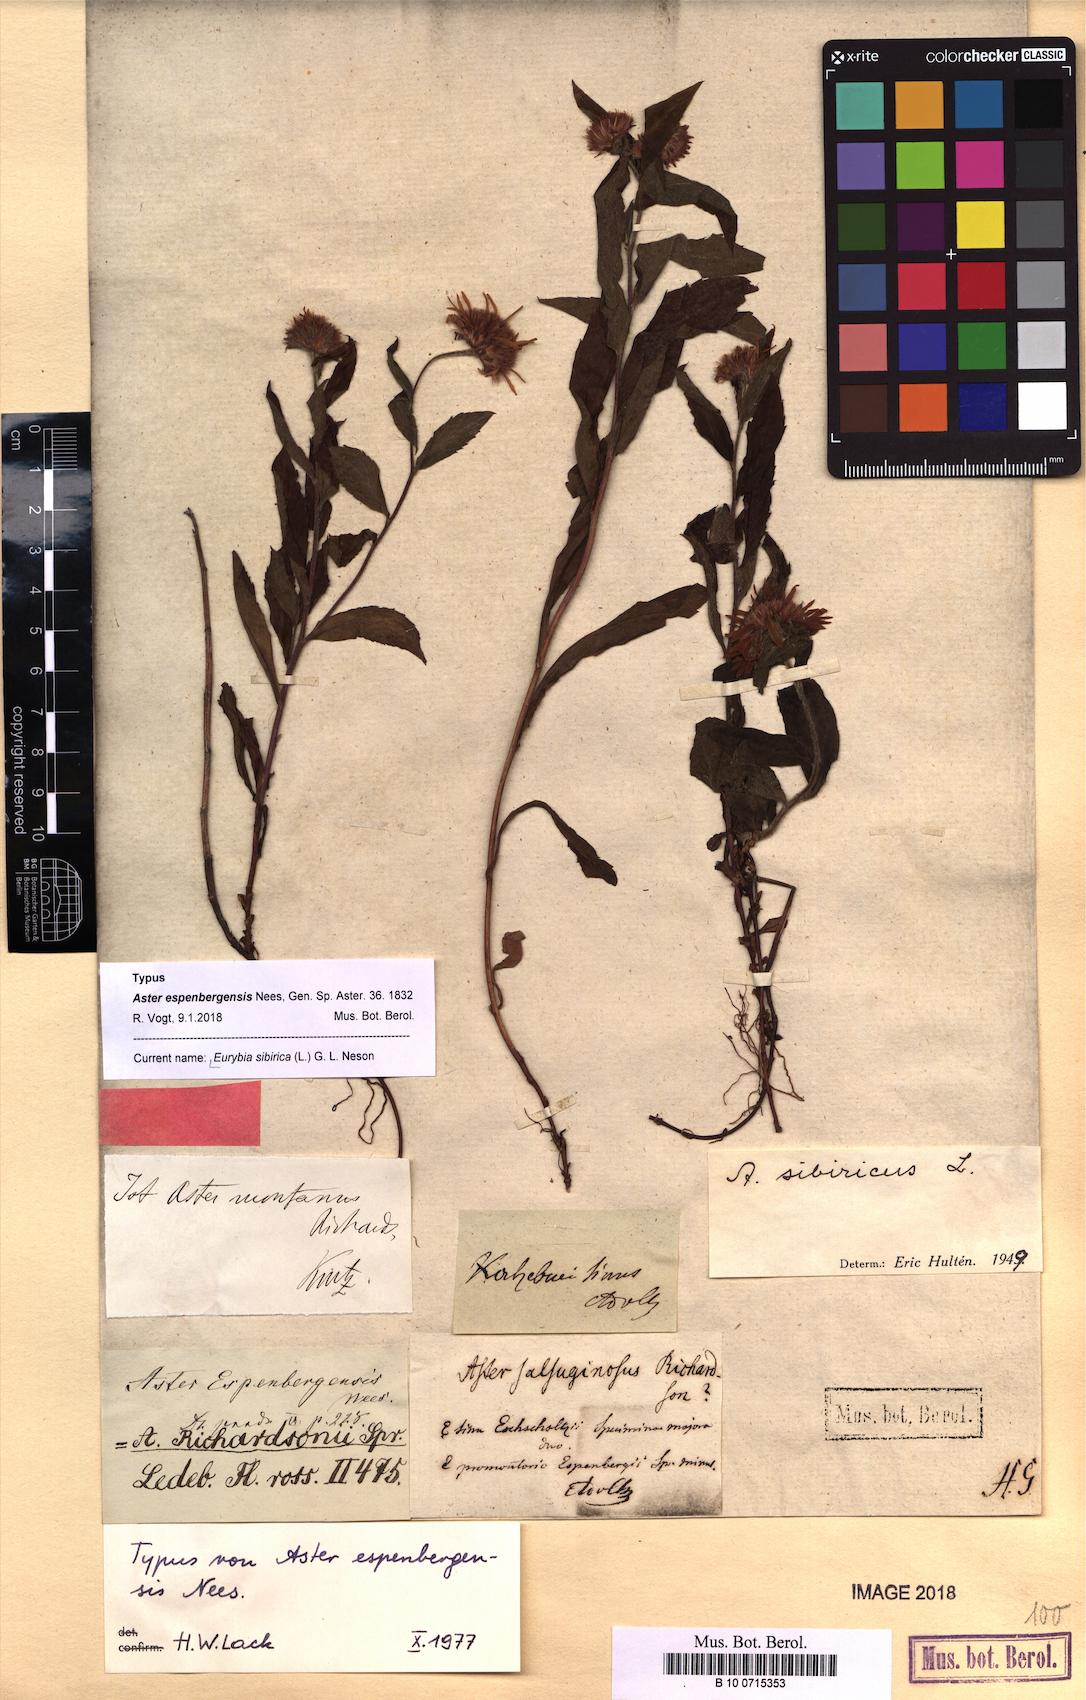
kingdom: Plantae
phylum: Tracheophyta
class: Magnoliopsida
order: Asterales
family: Asteraceae
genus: Eurybia
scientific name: Eurybia sibirica
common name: Arctic aster
